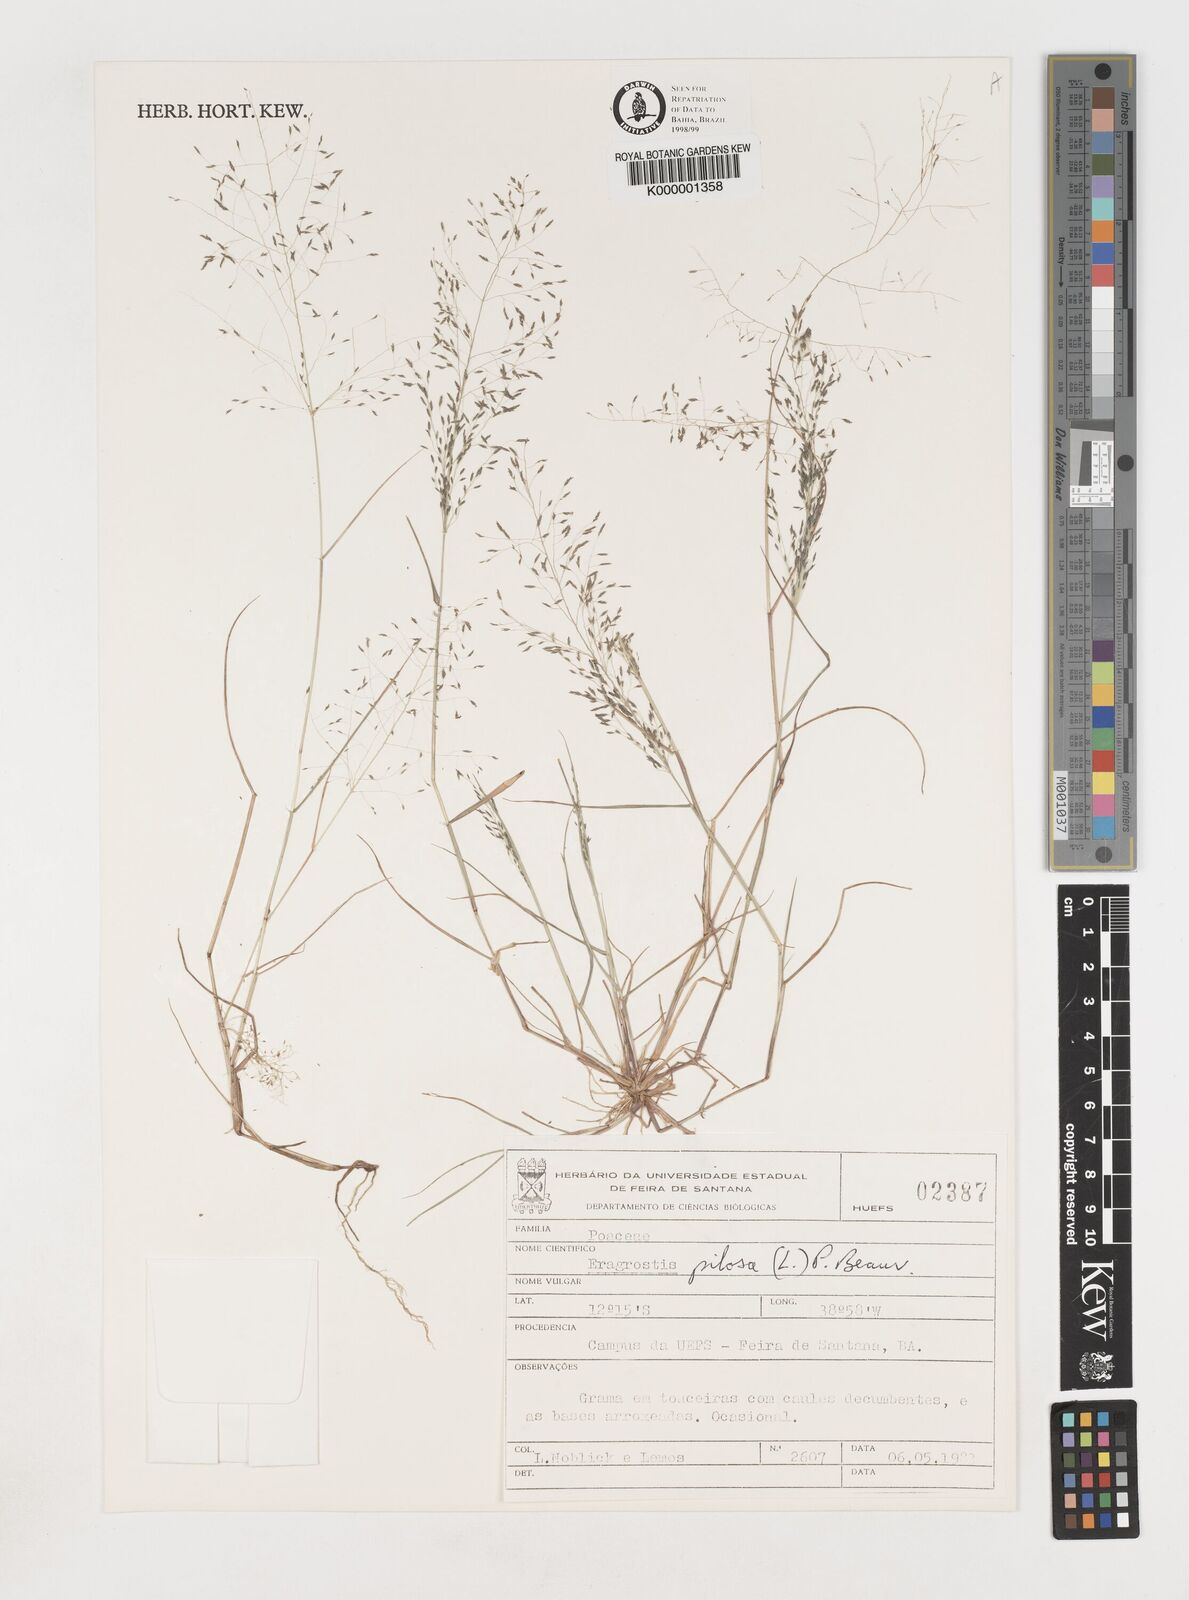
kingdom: Plantae
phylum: Tracheophyta
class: Liliopsida
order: Poales
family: Poaceae
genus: Eragrostis
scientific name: Eragrostis pilosa
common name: Indian lovegrass
